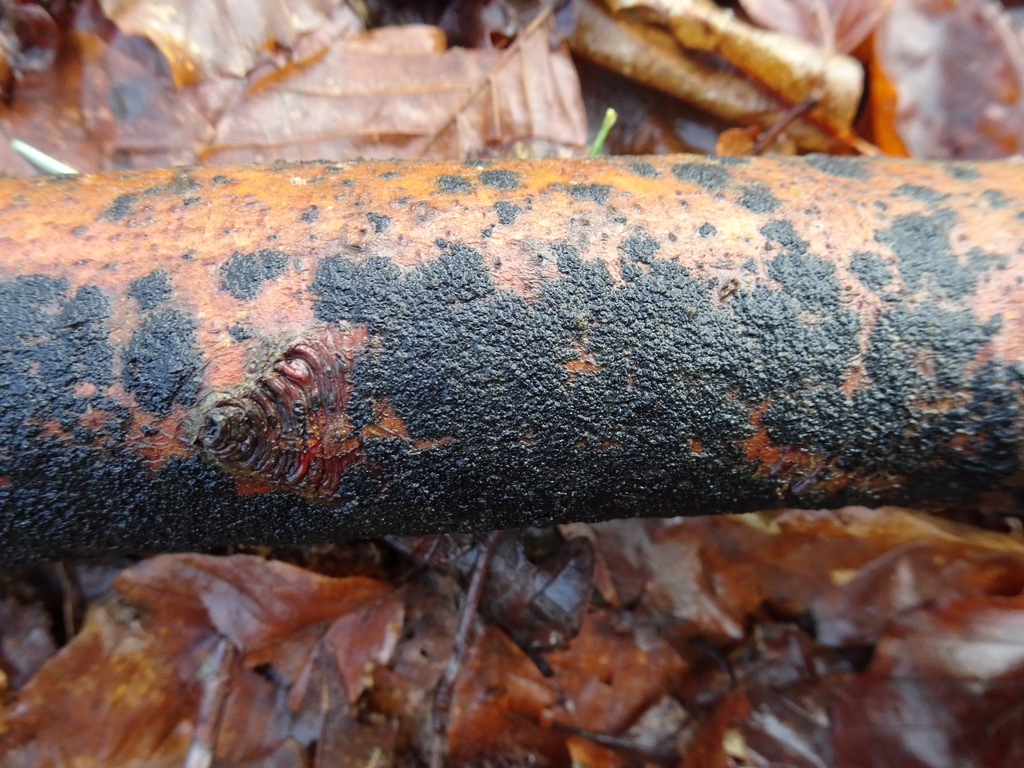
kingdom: Fungi
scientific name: Fungi
